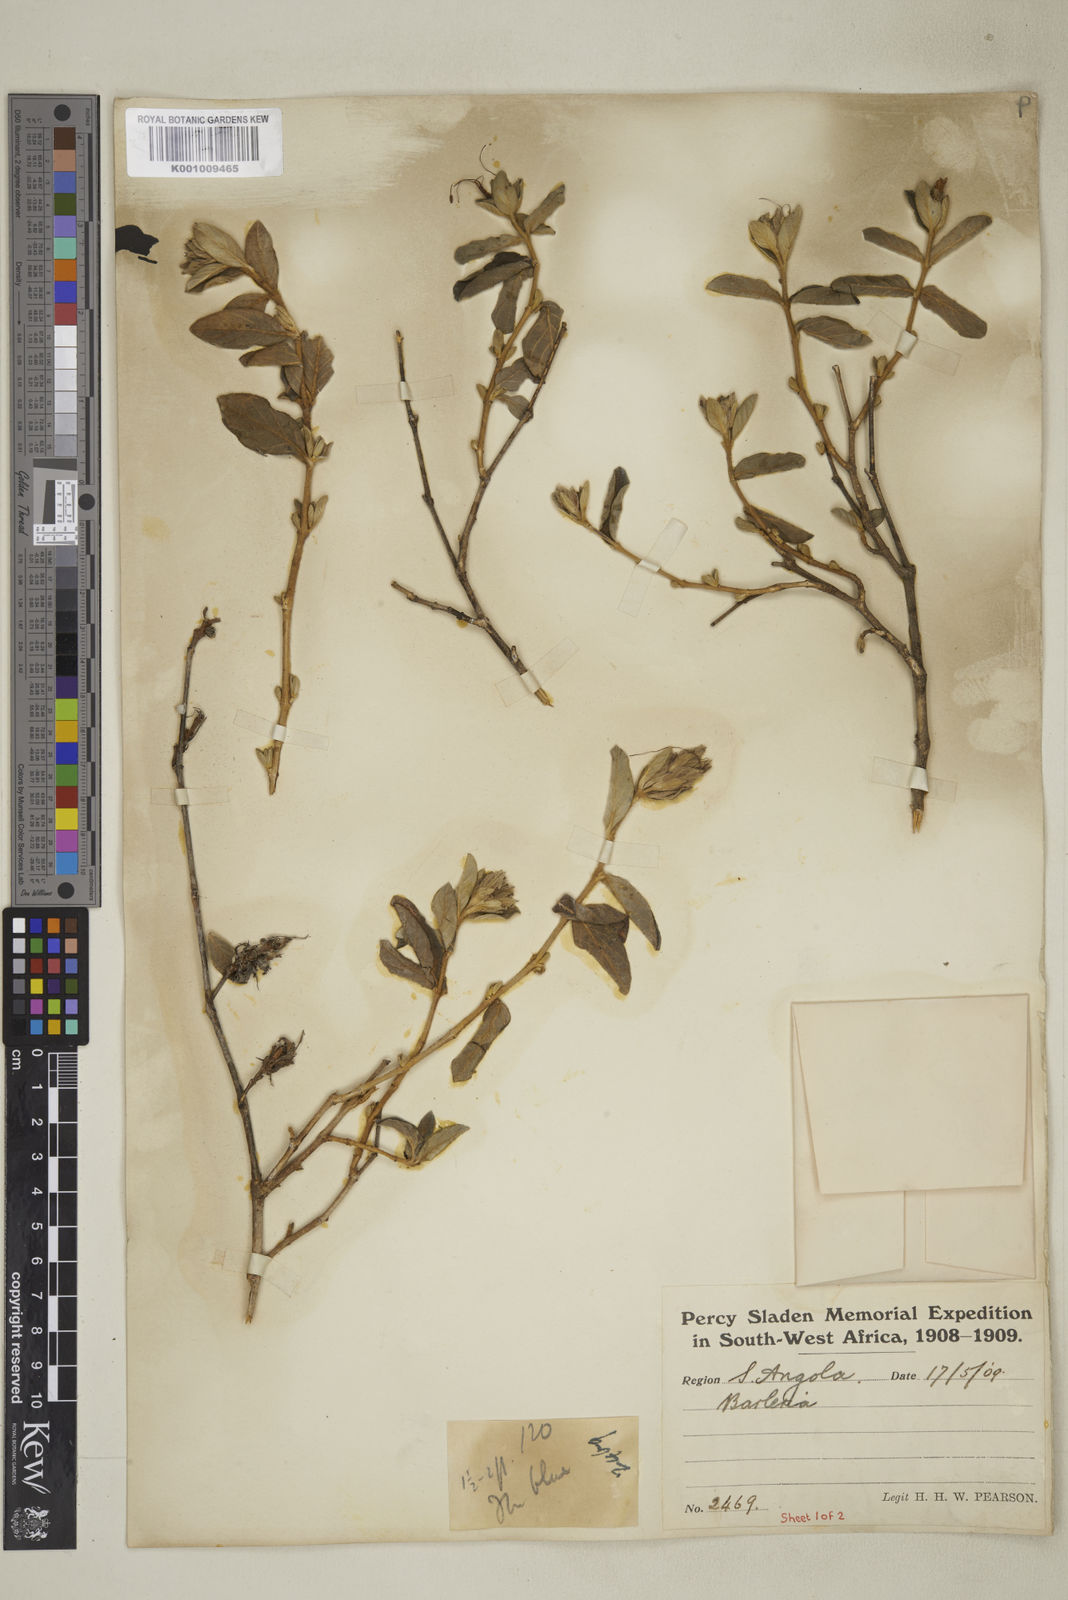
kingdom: Plantae
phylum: Tracheophyta
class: Magnoliopsida
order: Lamiales
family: Acanthaceae
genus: Barleria
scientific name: Barleria taitensis
